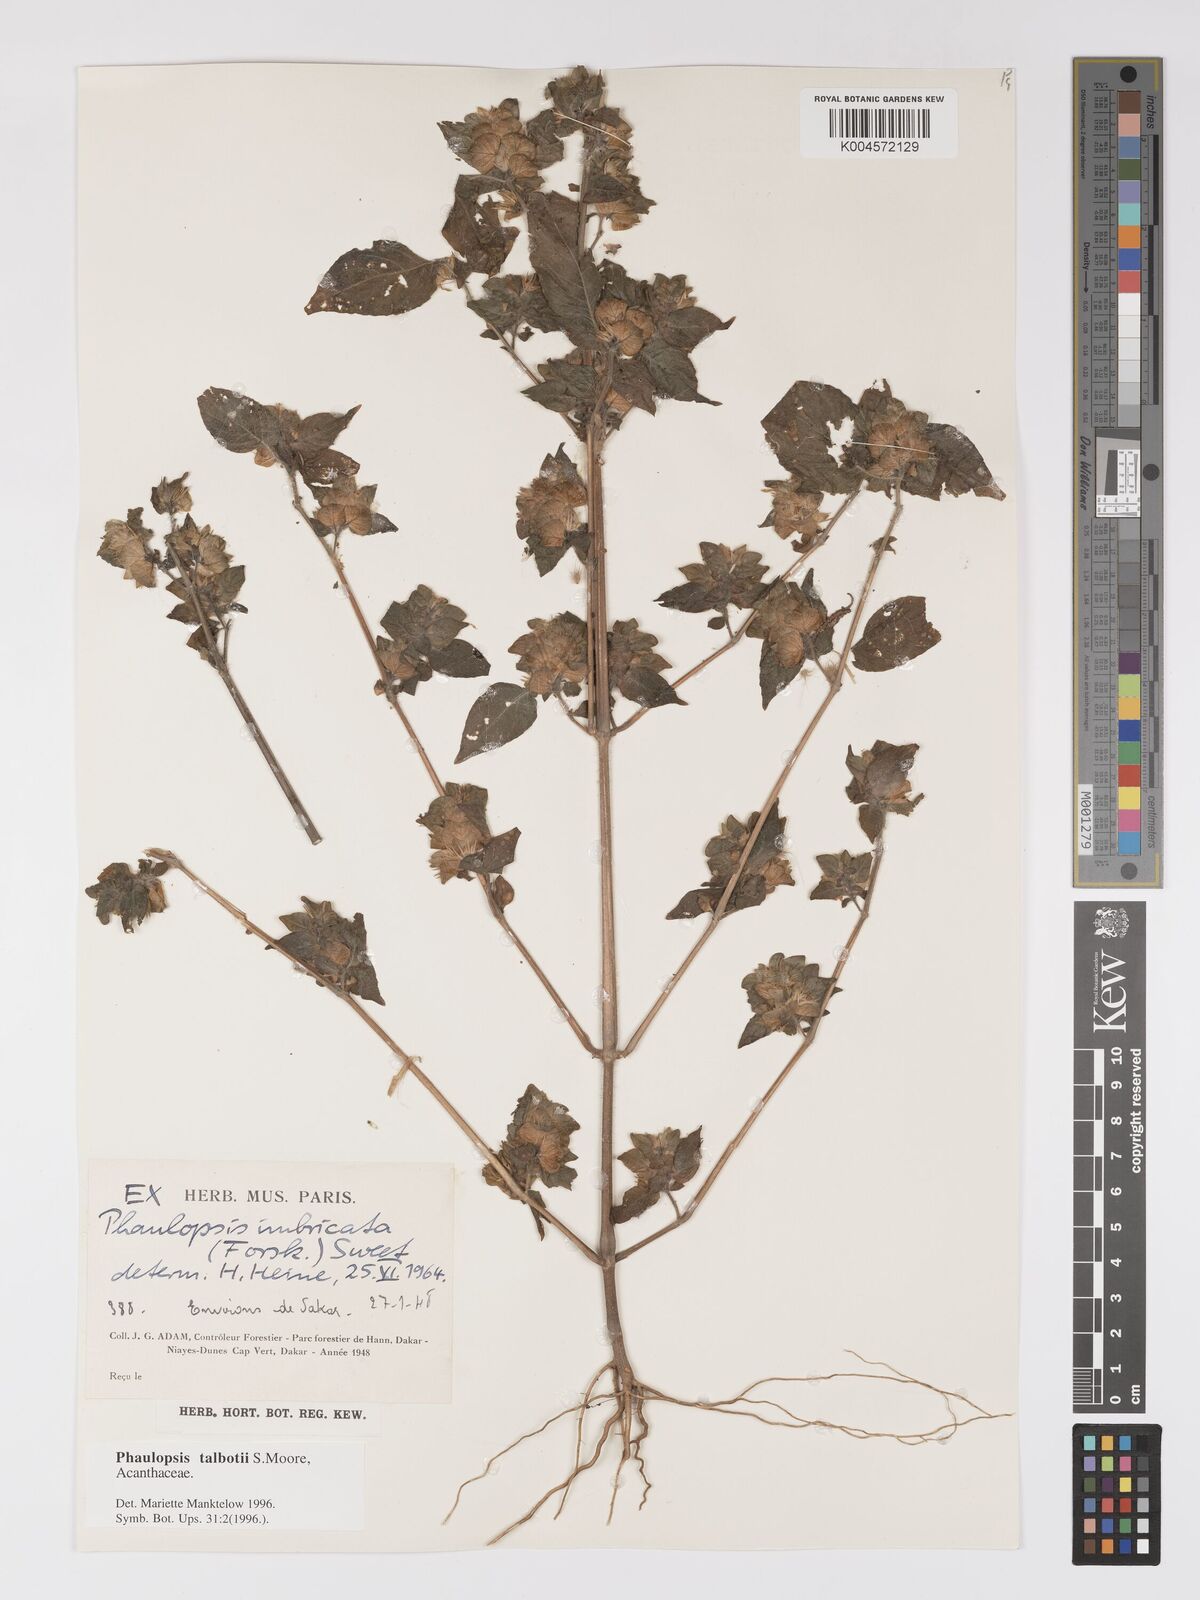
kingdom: Plantae
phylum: Tracheophyta
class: Magnoliopsida
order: Lamiales
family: Acanthaceae
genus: Phaulopsis
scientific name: Phaulopsis talbotii
